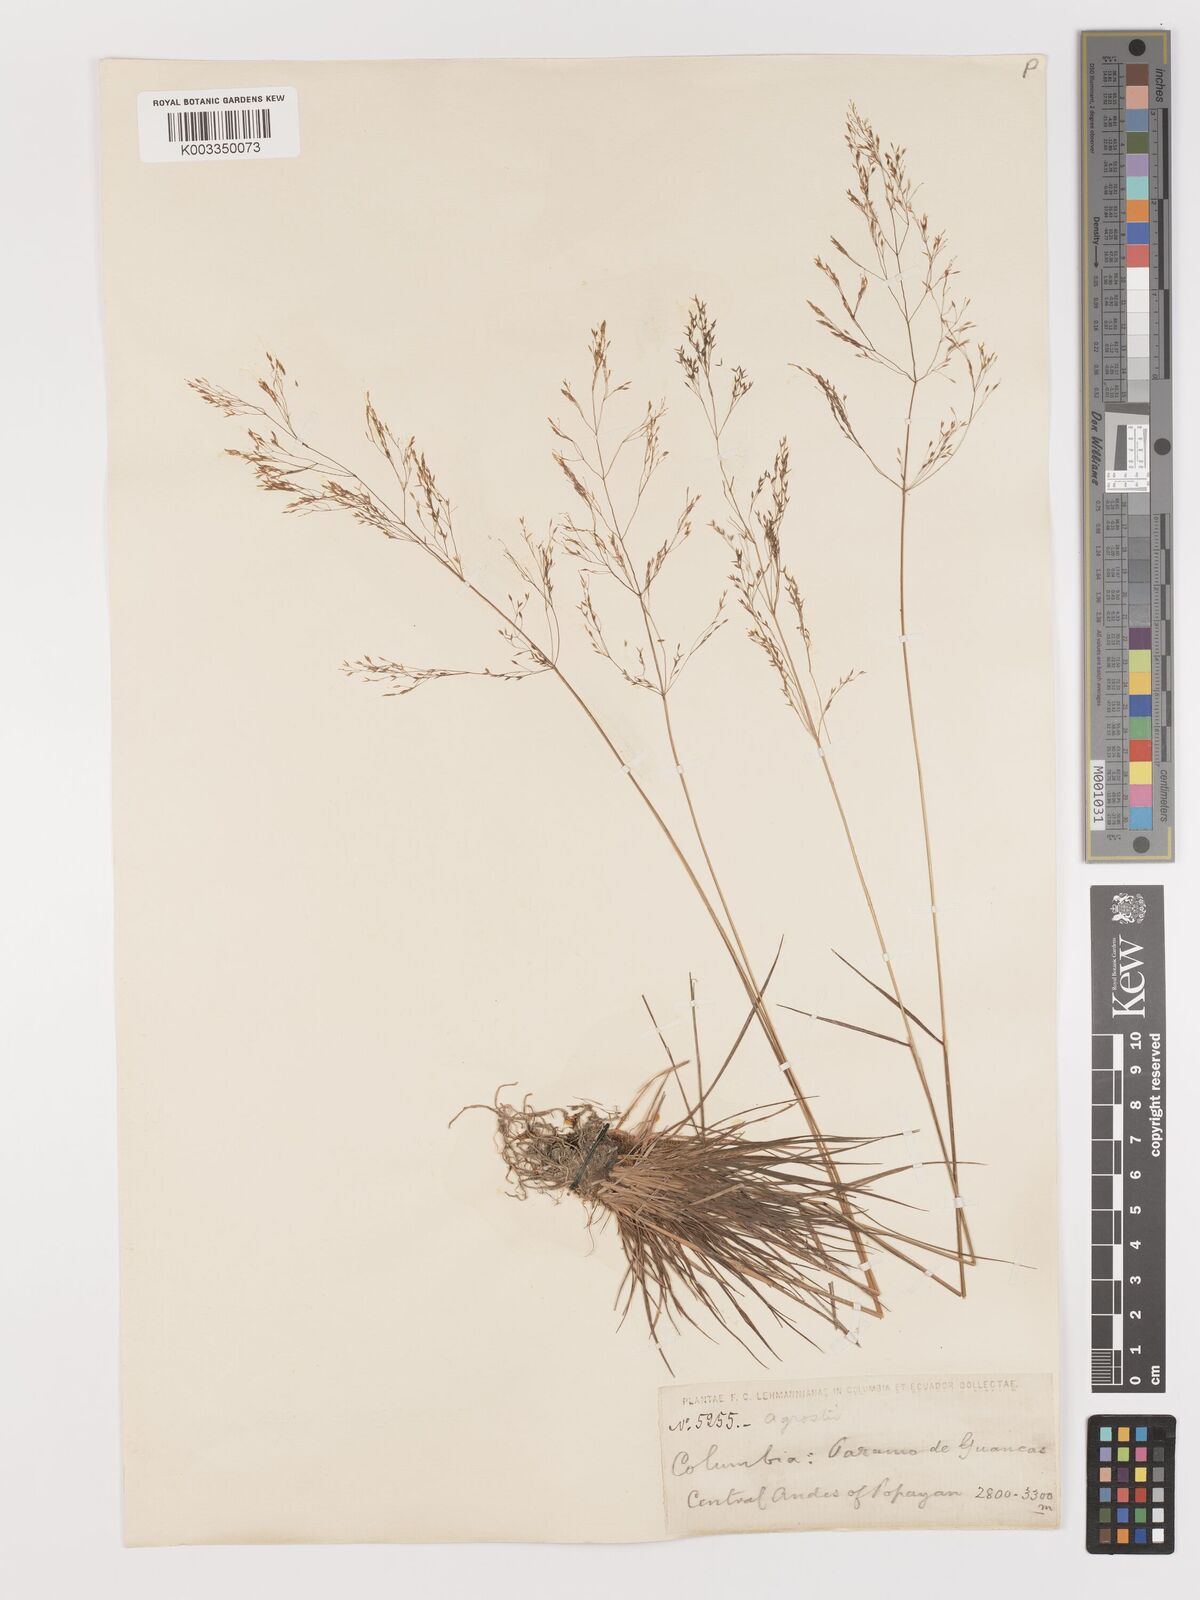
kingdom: Plantae
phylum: Tracheophyta
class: Liliopsida
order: Poales
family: Poaceae
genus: Agrostis
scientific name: Agrostis
